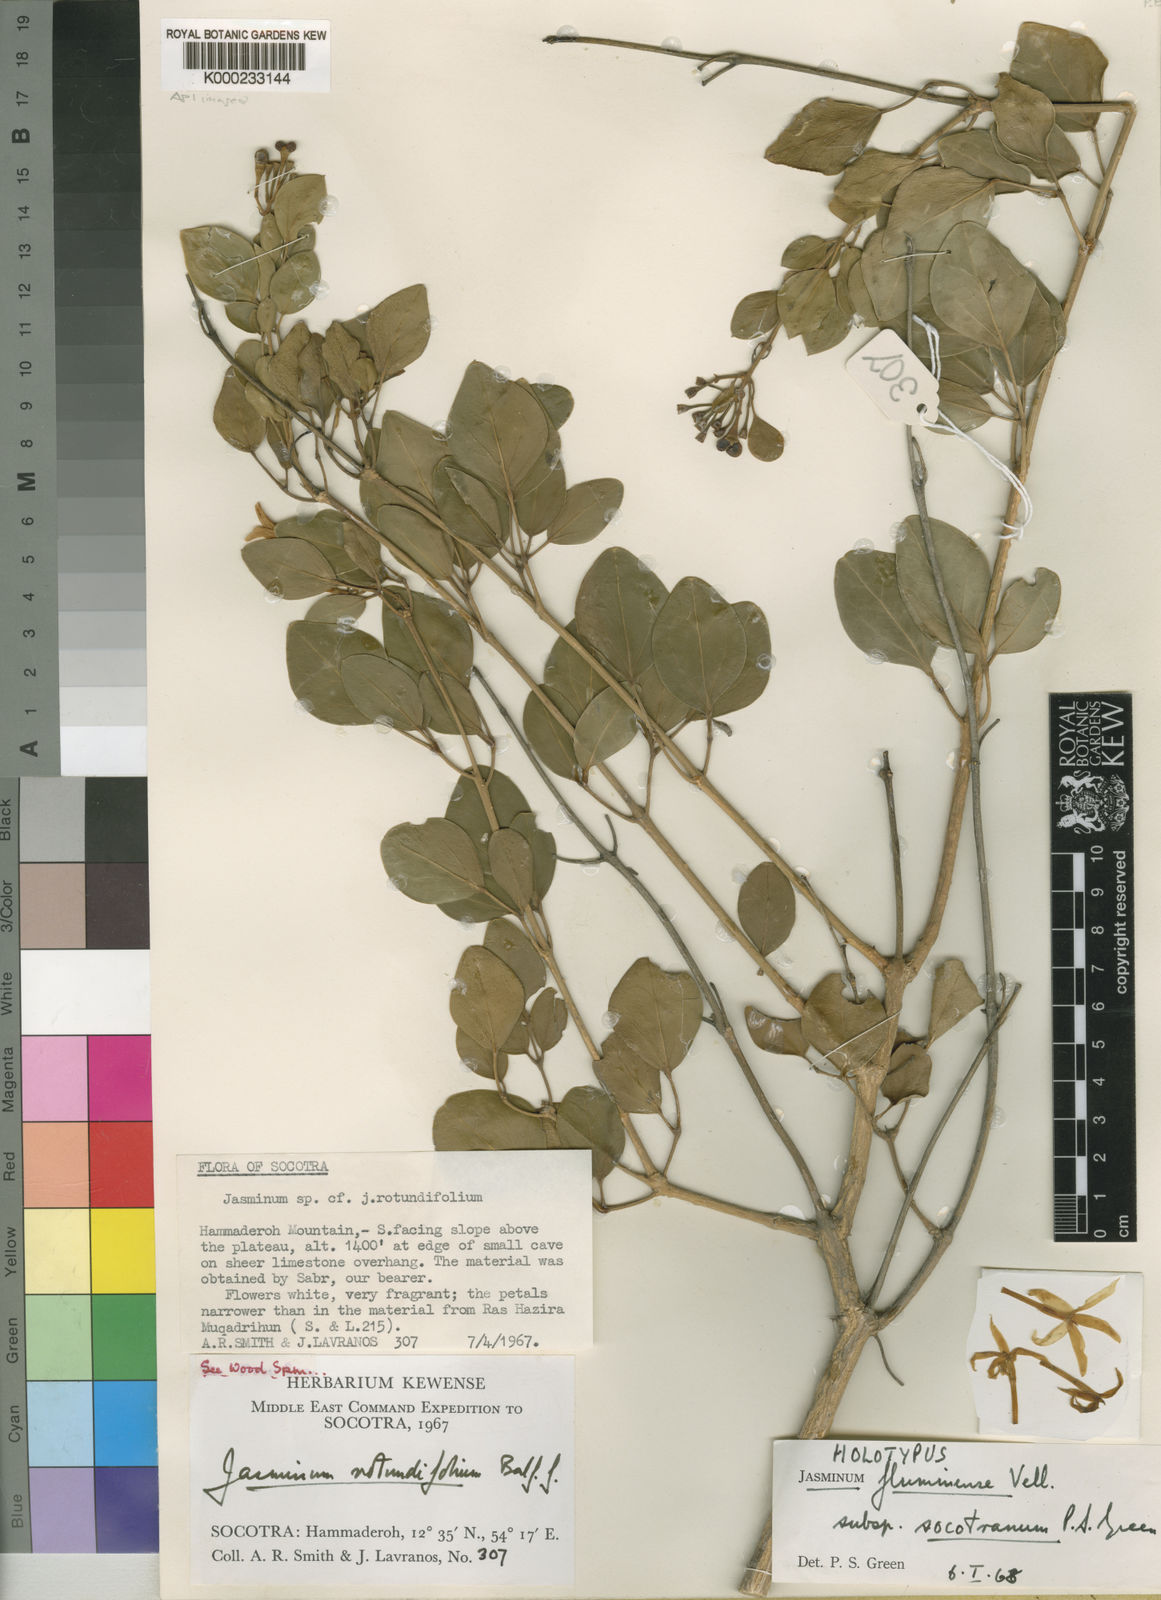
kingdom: Plantae
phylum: Tracheophyta
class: Magnoliopsida
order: Lamiales
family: Oleaceae
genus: Jasminum
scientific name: Jasminum fluminense
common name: Brazilian jasmine
